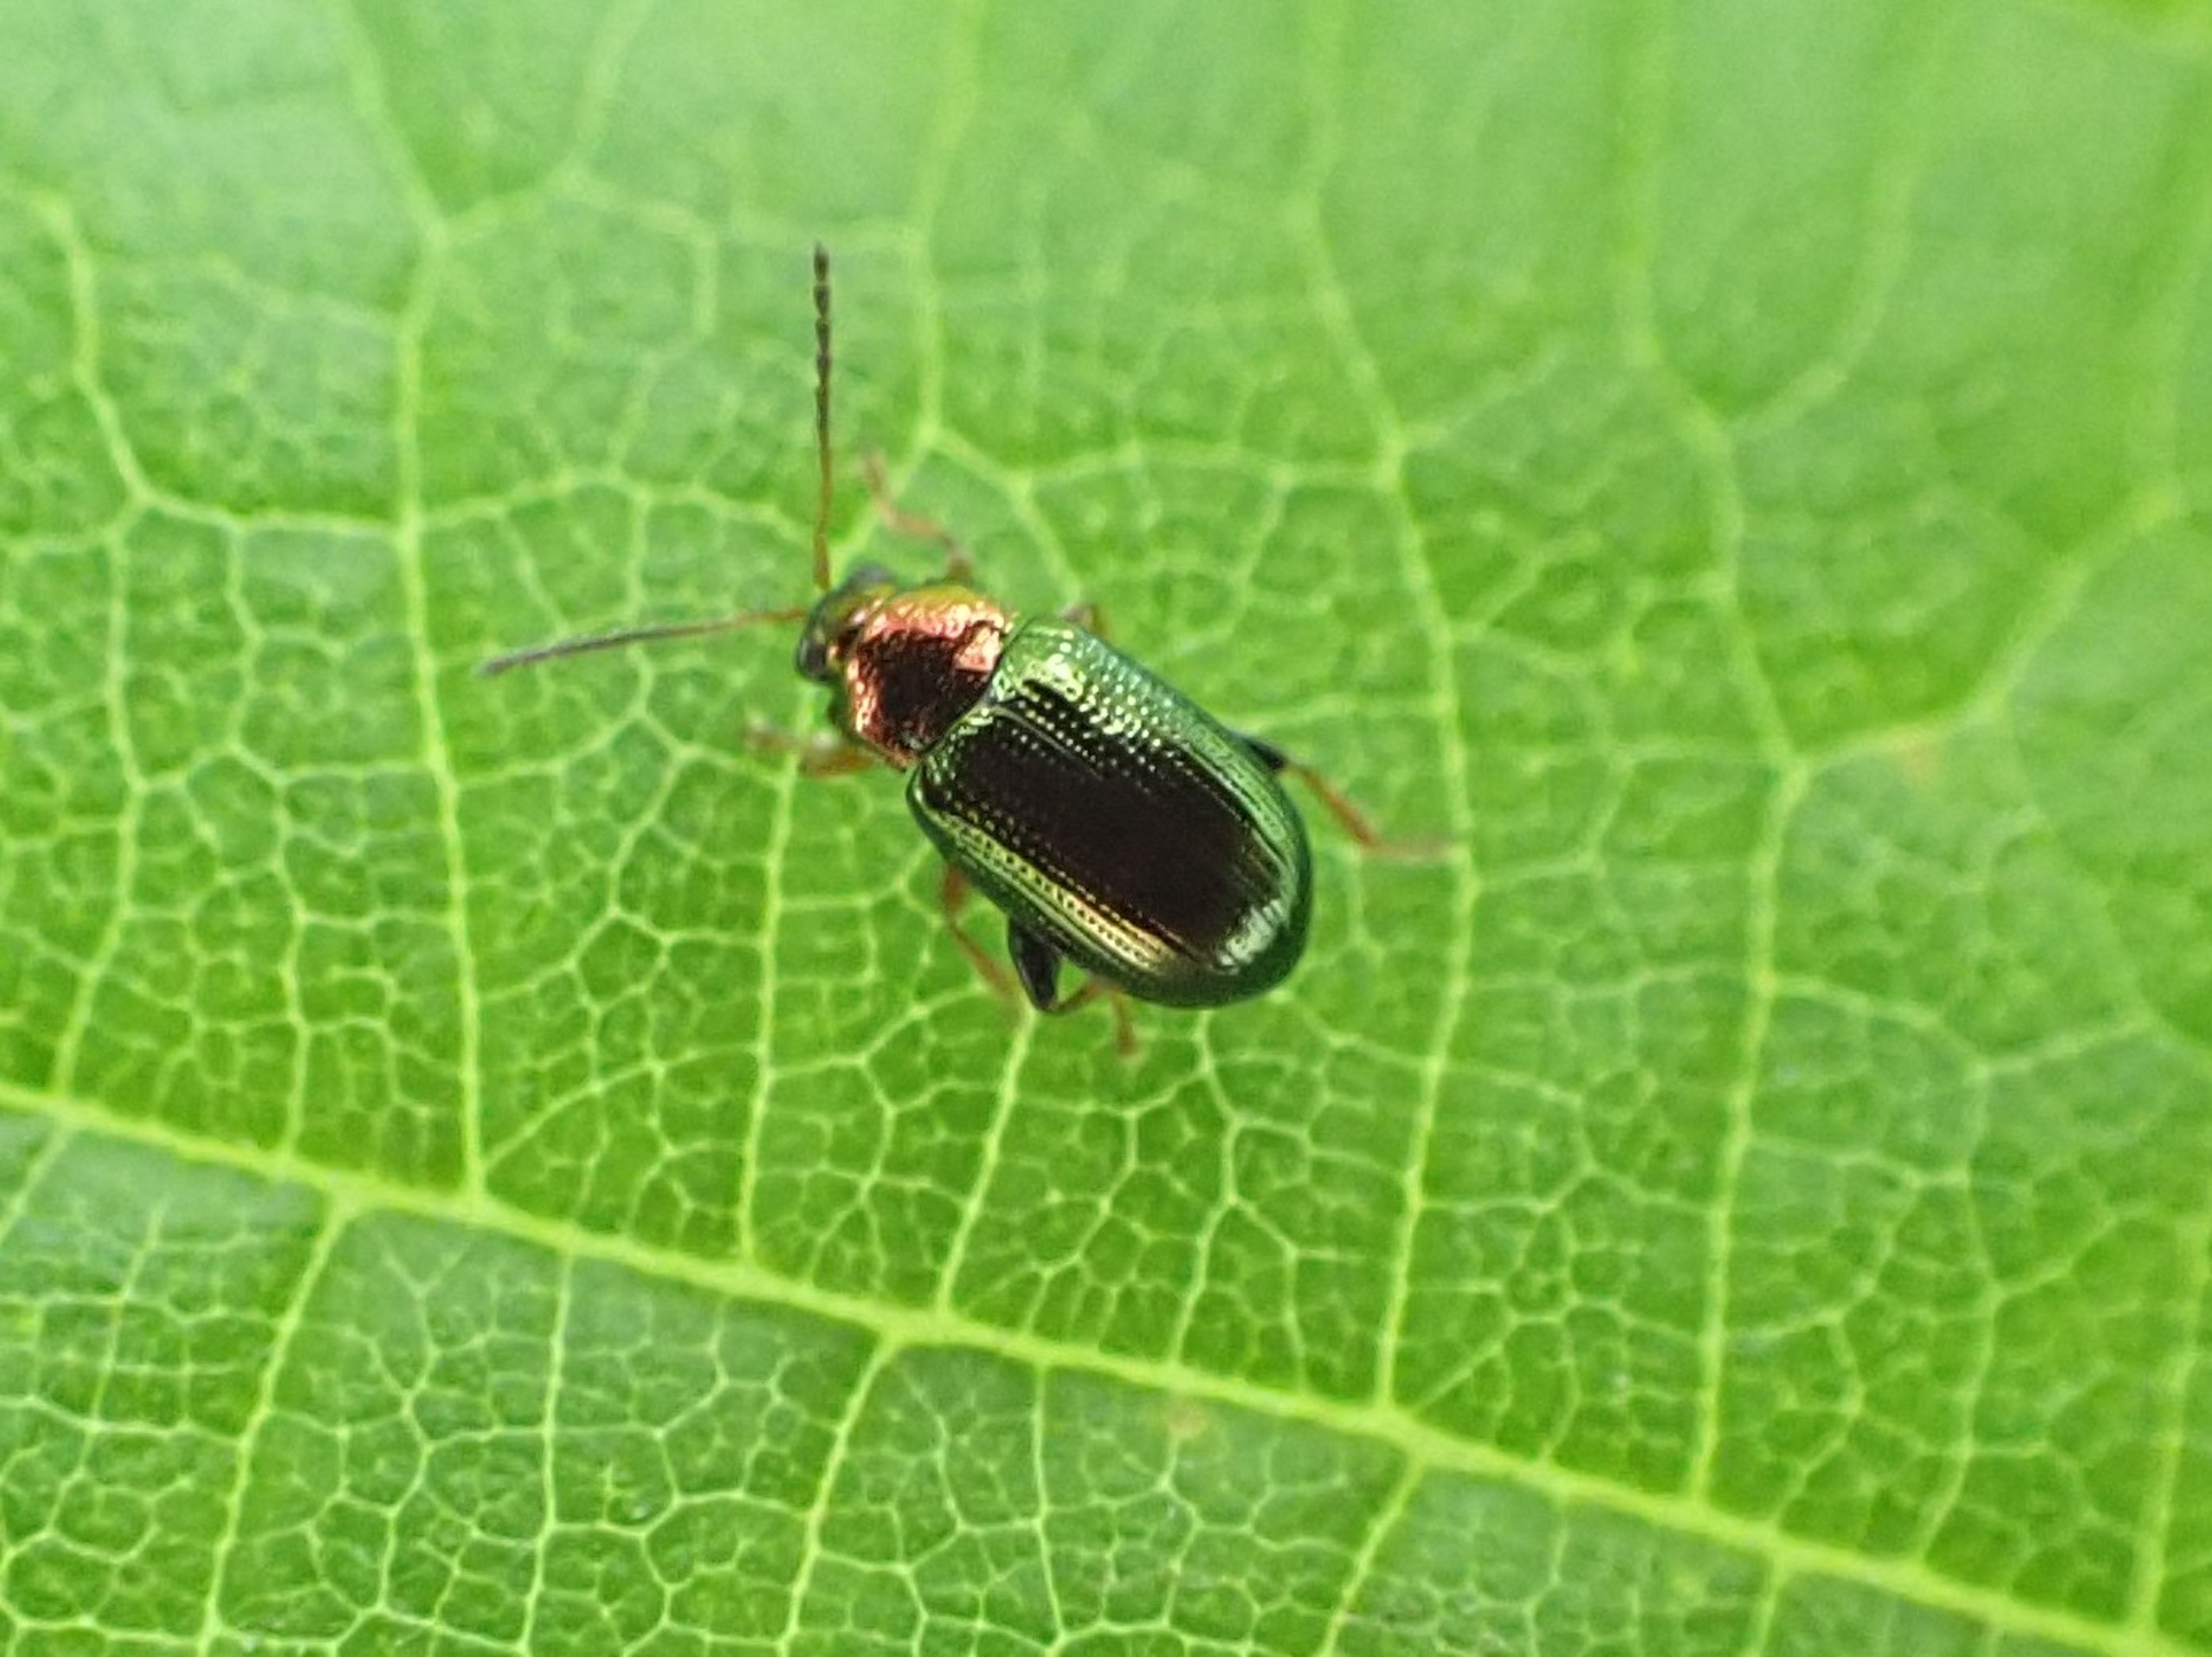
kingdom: Animalia
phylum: Arthropoda
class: Insecta
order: Coleoptera
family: Chrysomelidae
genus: Crepidodera
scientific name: Crepidodera aurata
